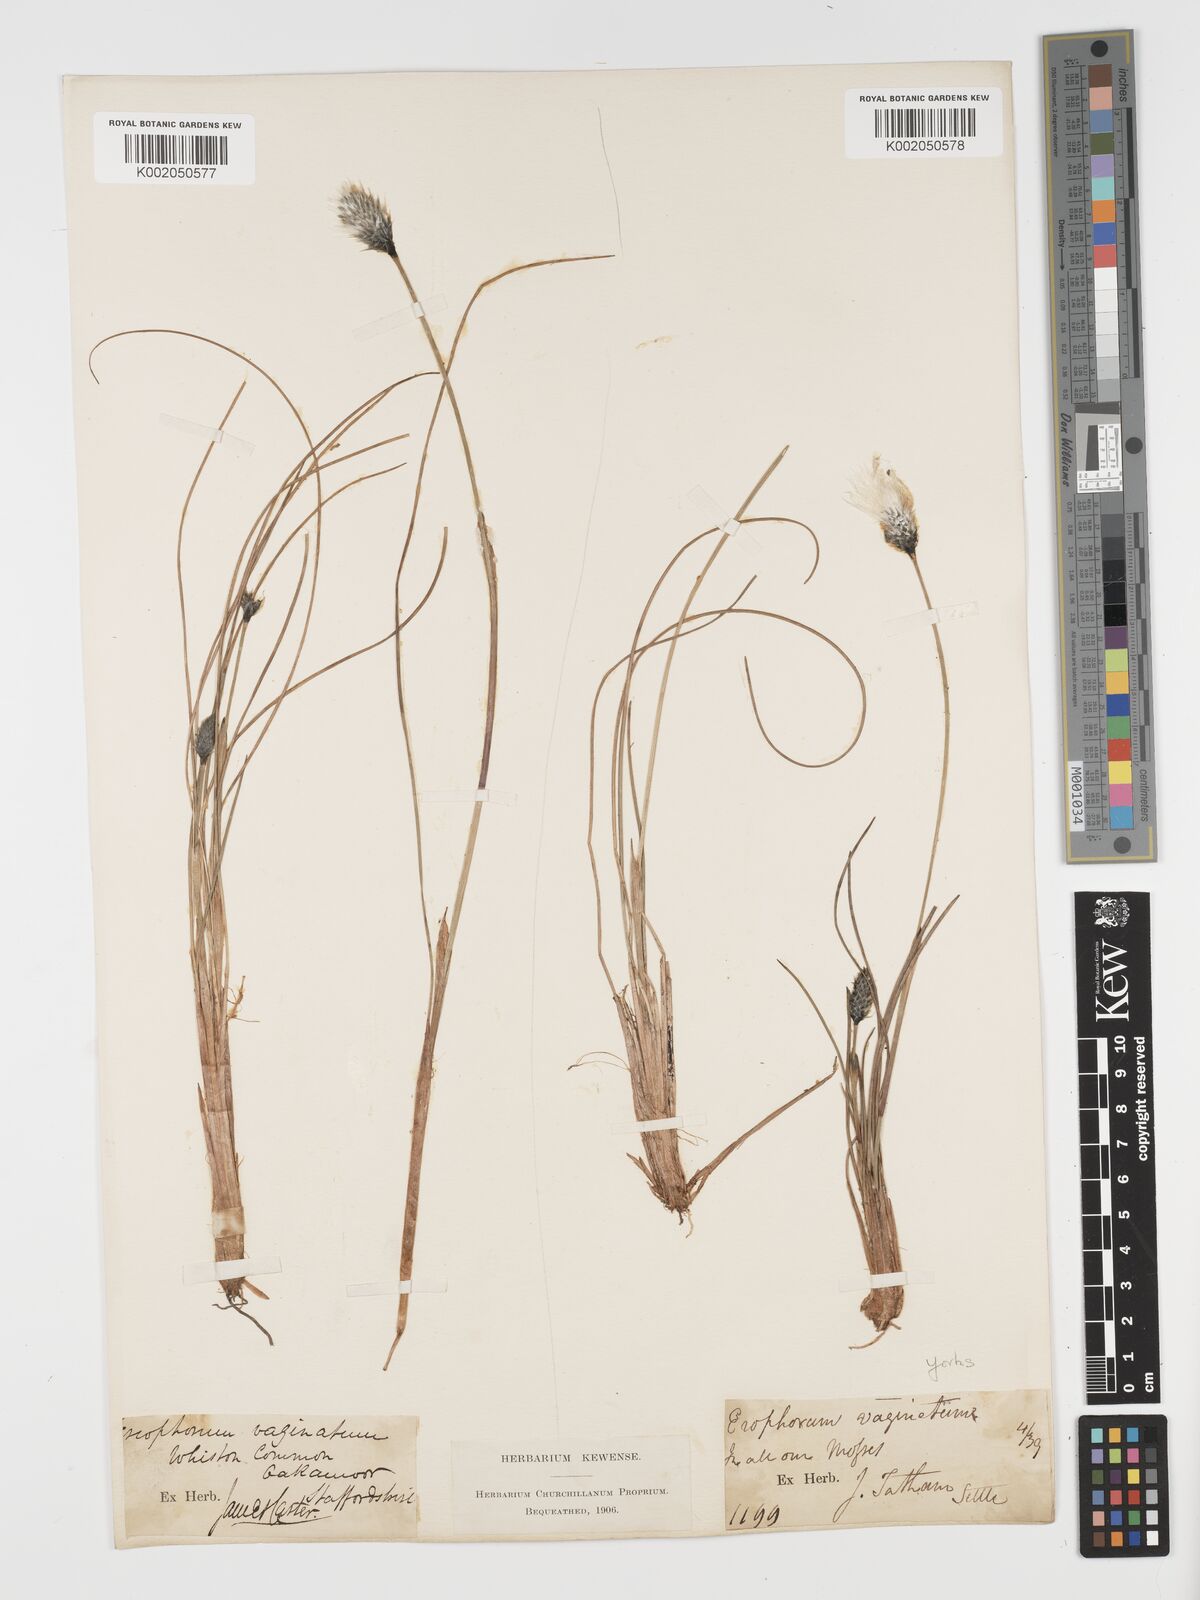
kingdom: Plantae
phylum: Tracheophyta
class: Liliopsida
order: Poales
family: Cyperaceae
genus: Eriophorum
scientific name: Eriophorum vaginatum
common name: Hare's-tail cottongrass
